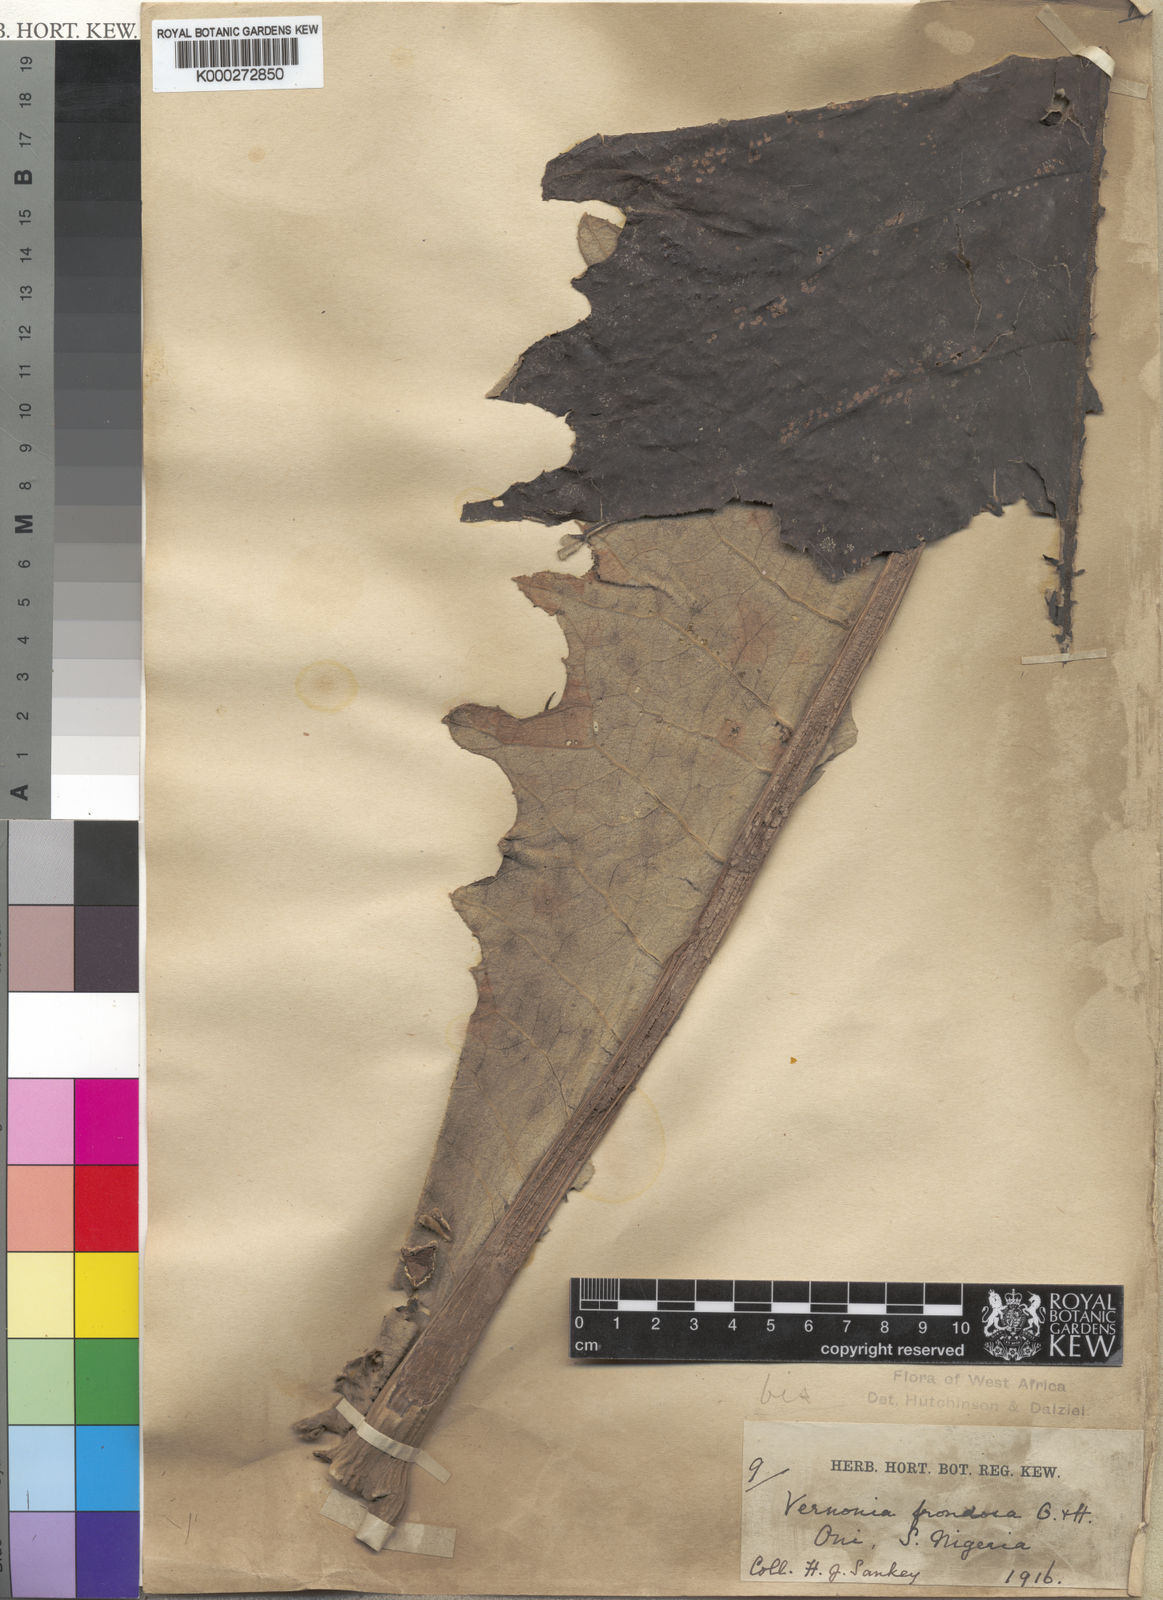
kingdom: Plantae
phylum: Tracheophyta
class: Magnoliopsida
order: Asterales
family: Asteraceae
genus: Brenandendron
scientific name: Brenandendron frondosum
